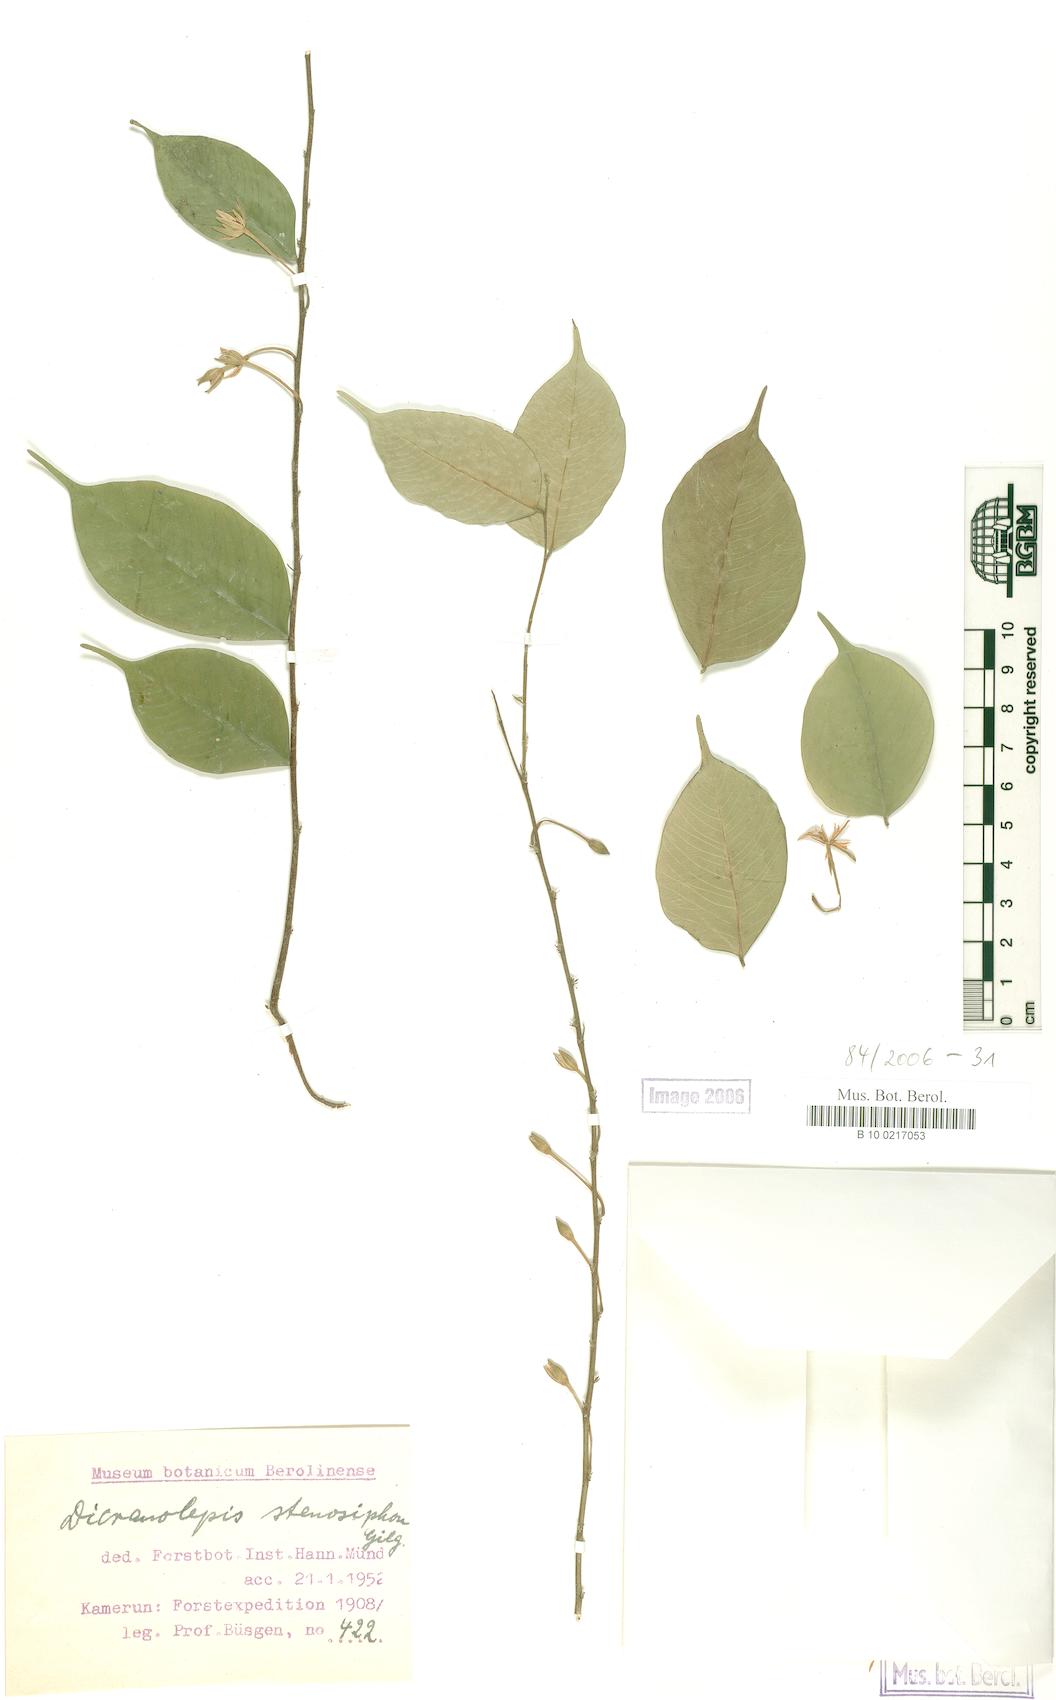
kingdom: Plantae
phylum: Tracheophyta
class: Magnoliopsida
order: Malvales
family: Thymelaeaceae
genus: Dicranolepis
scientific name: Dicranolepis disticha
